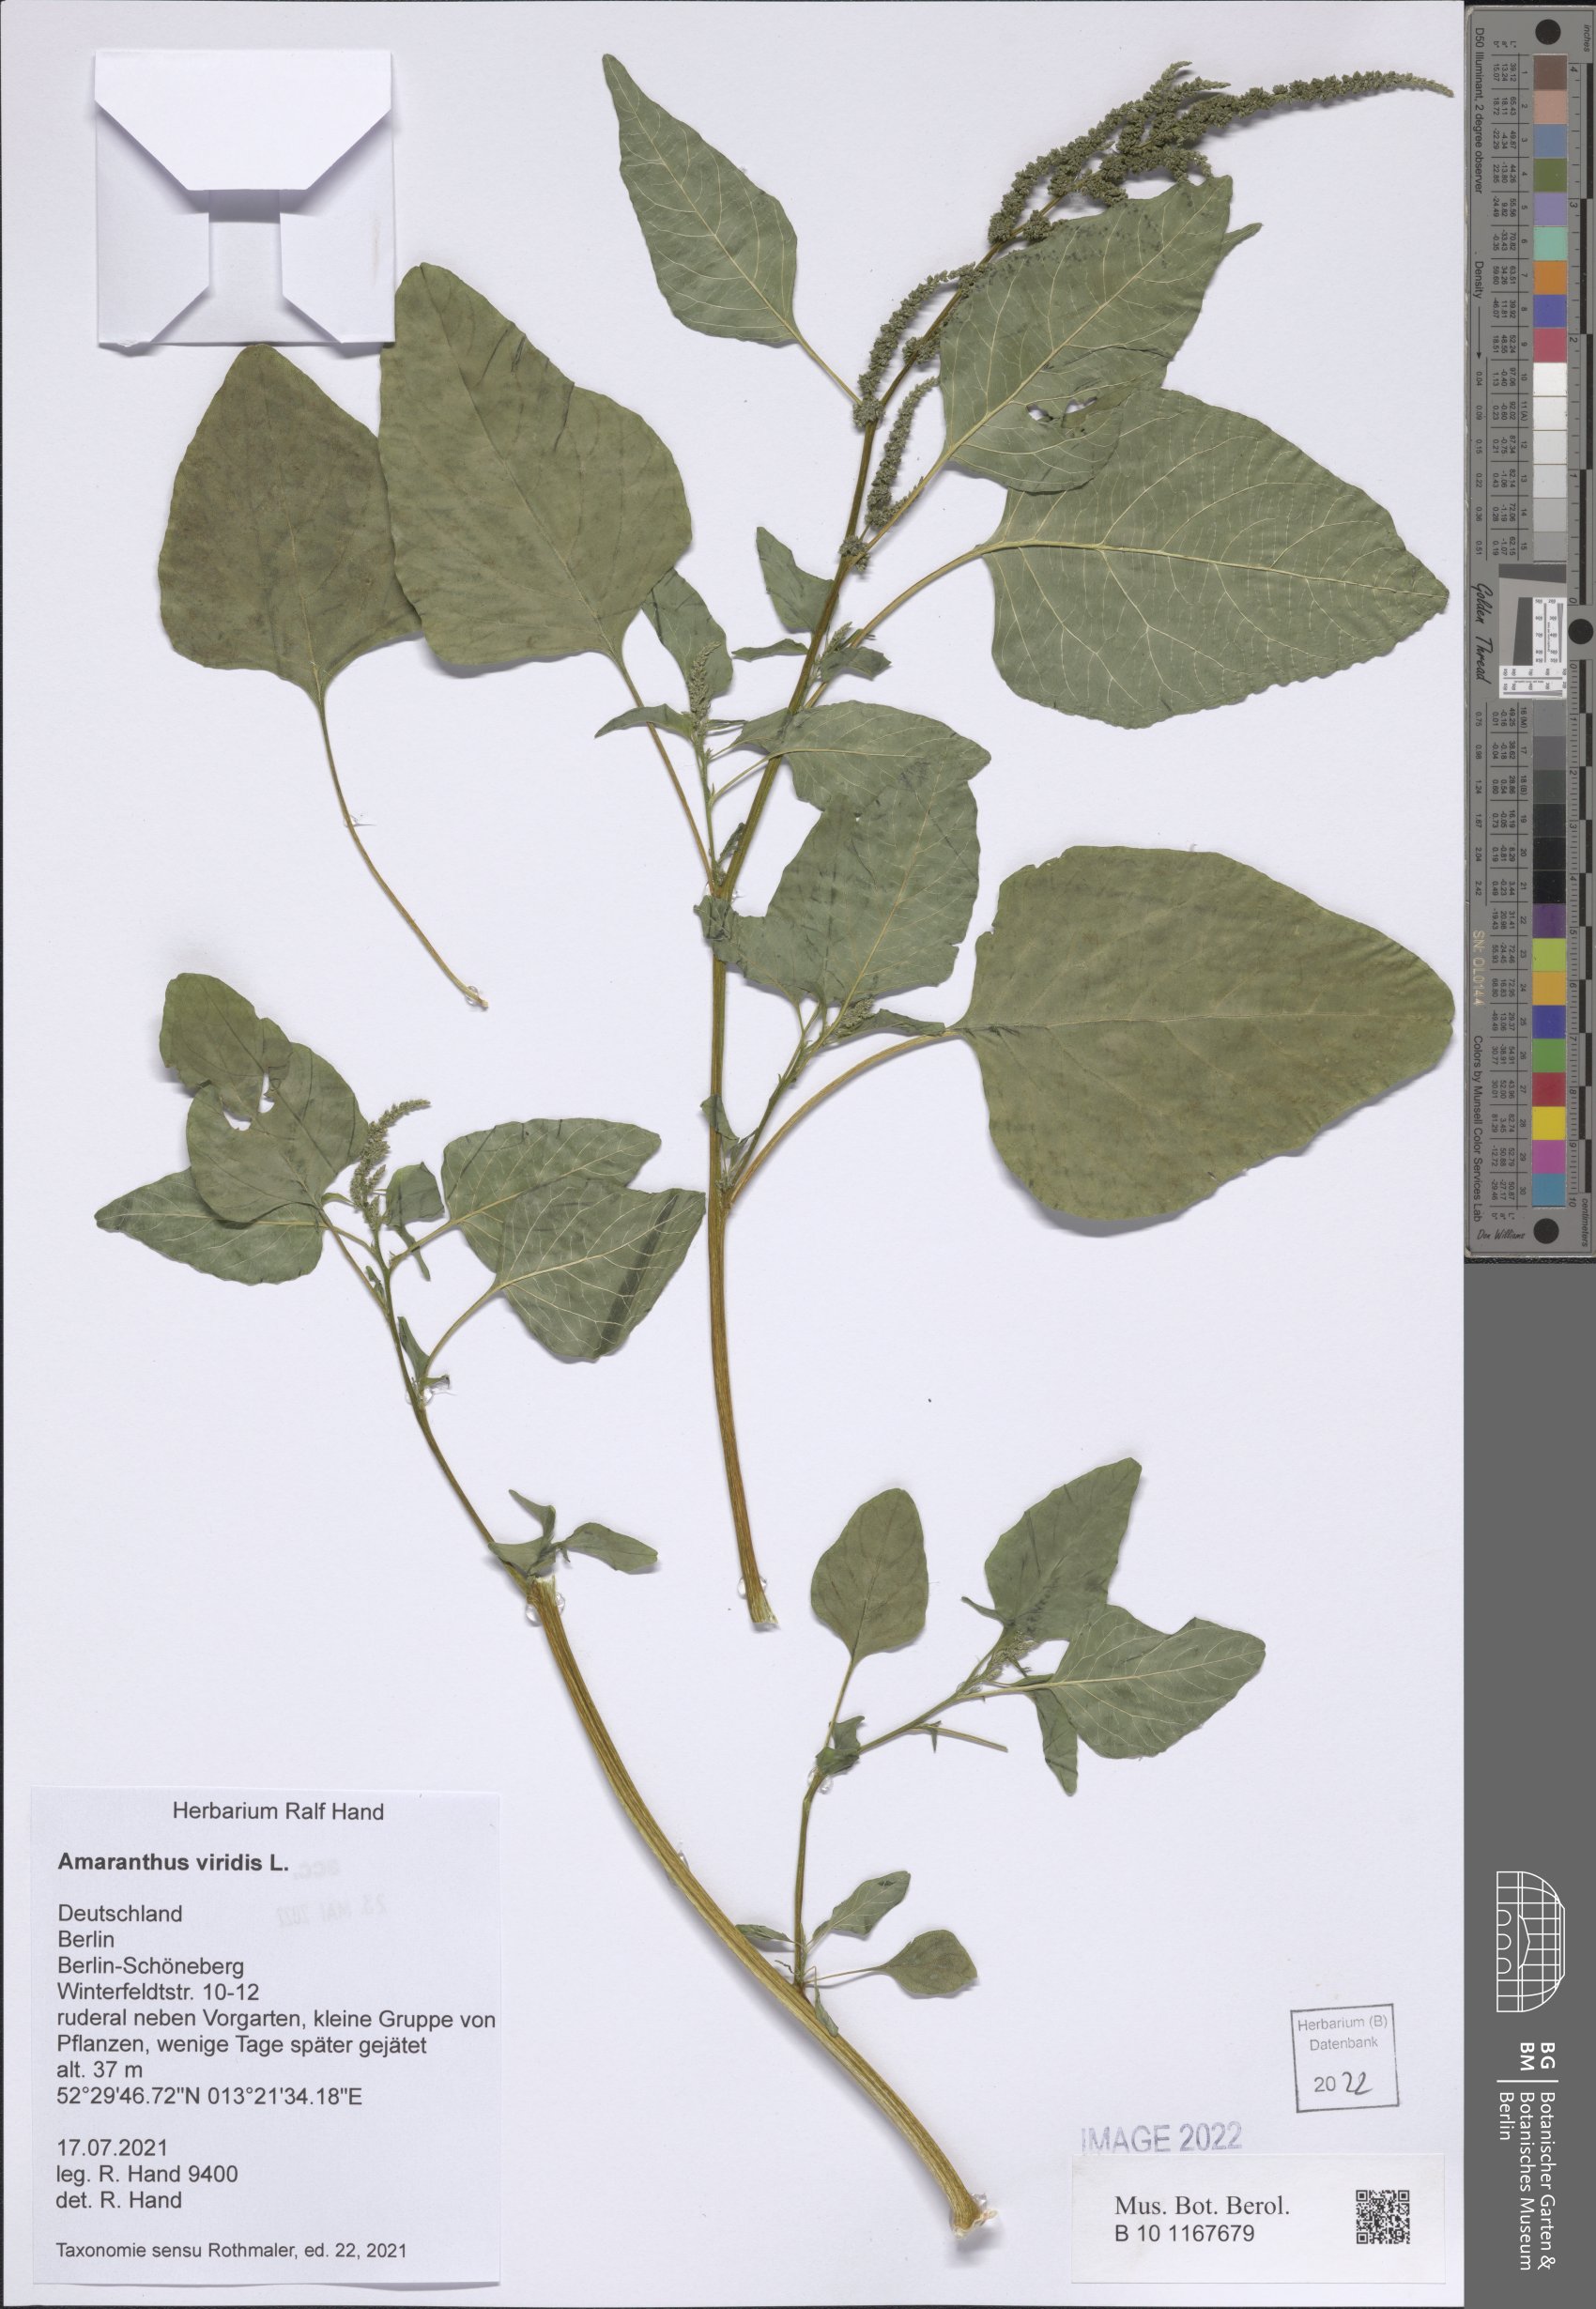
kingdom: Plantae
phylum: Tracheophyta
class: Magnoliopsida
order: Caryophyllales
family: Amaranthaceae
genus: Amaranthus
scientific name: Amaranthus viridis
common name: Slender amaranth
